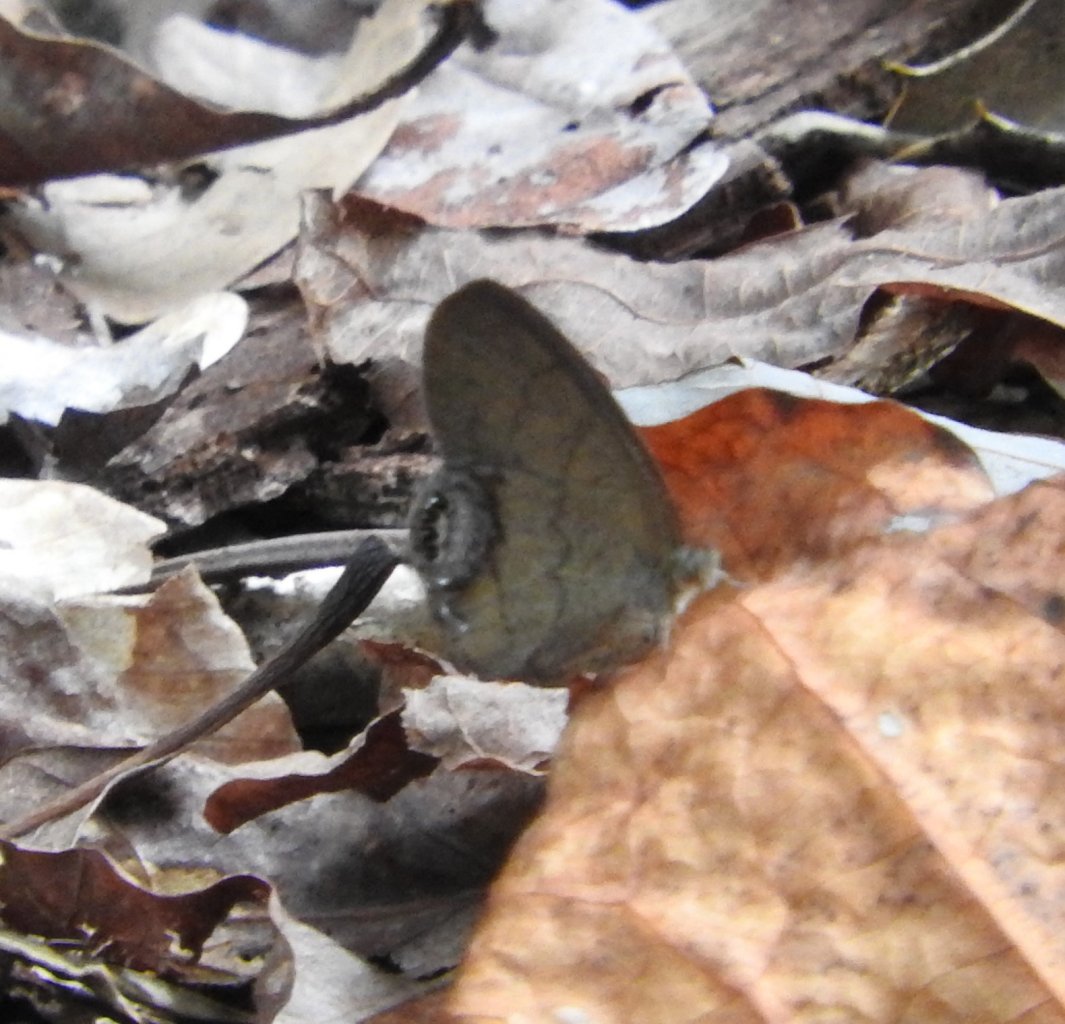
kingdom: Animalia
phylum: Arthropoda
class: Insecta
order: Lepidoptera
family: Nymphalidae
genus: Euptychia
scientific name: Euptychia cornelius
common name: Gemmed Satyr
